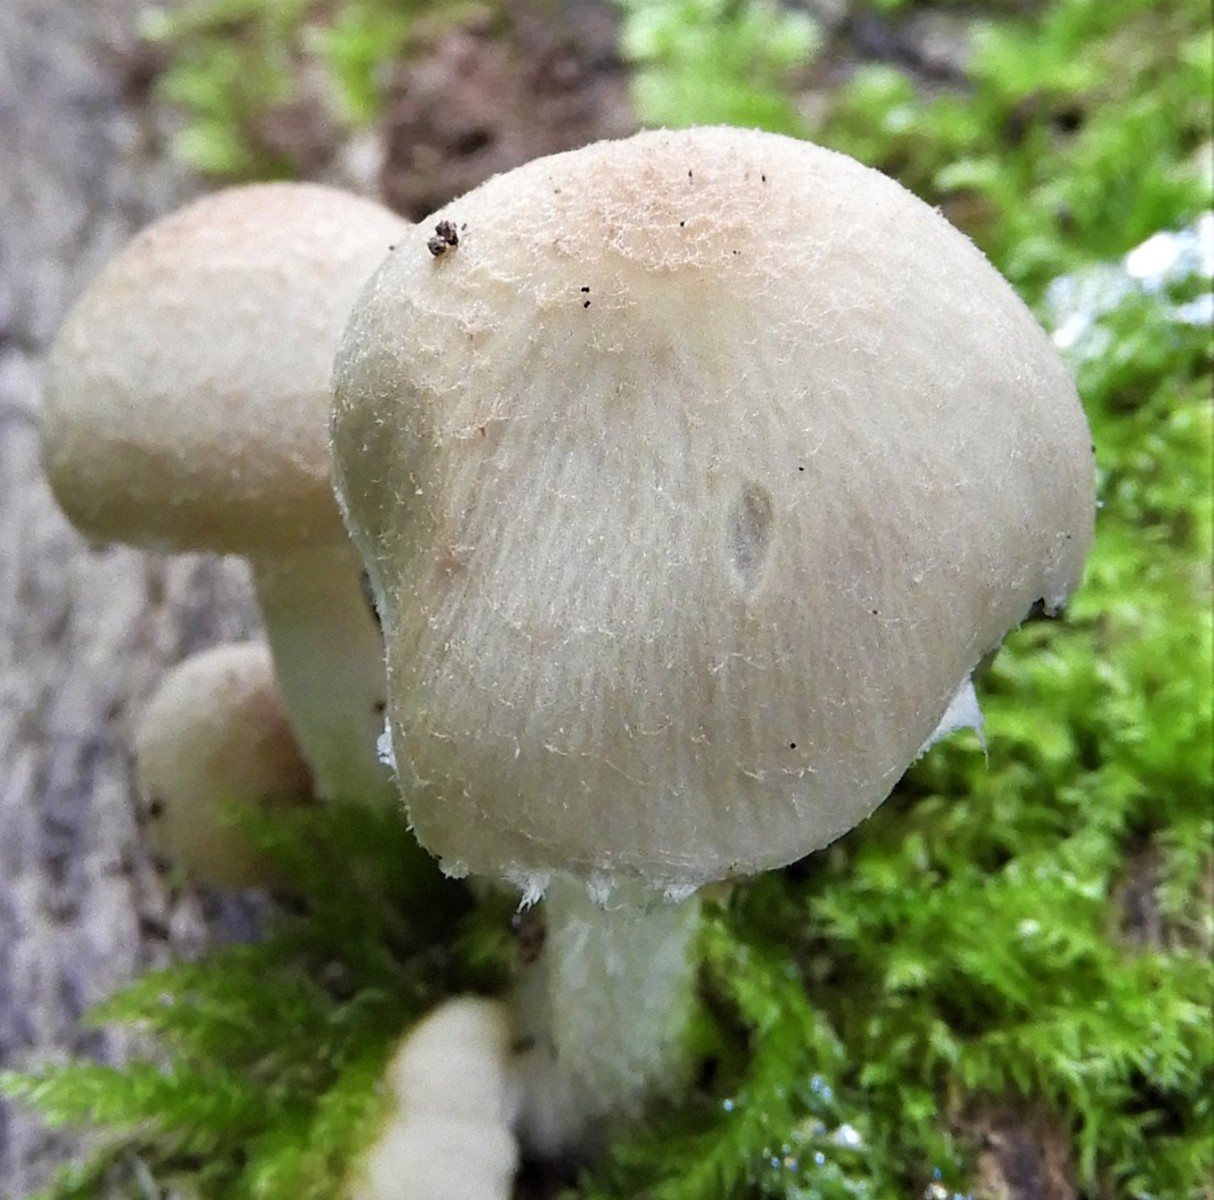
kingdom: Fungi
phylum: Basidiomycota
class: Agaricomycetes
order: Agaricales
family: Psathyrellaceae
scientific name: Psathyrellaceae
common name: mørkhatfamilien
